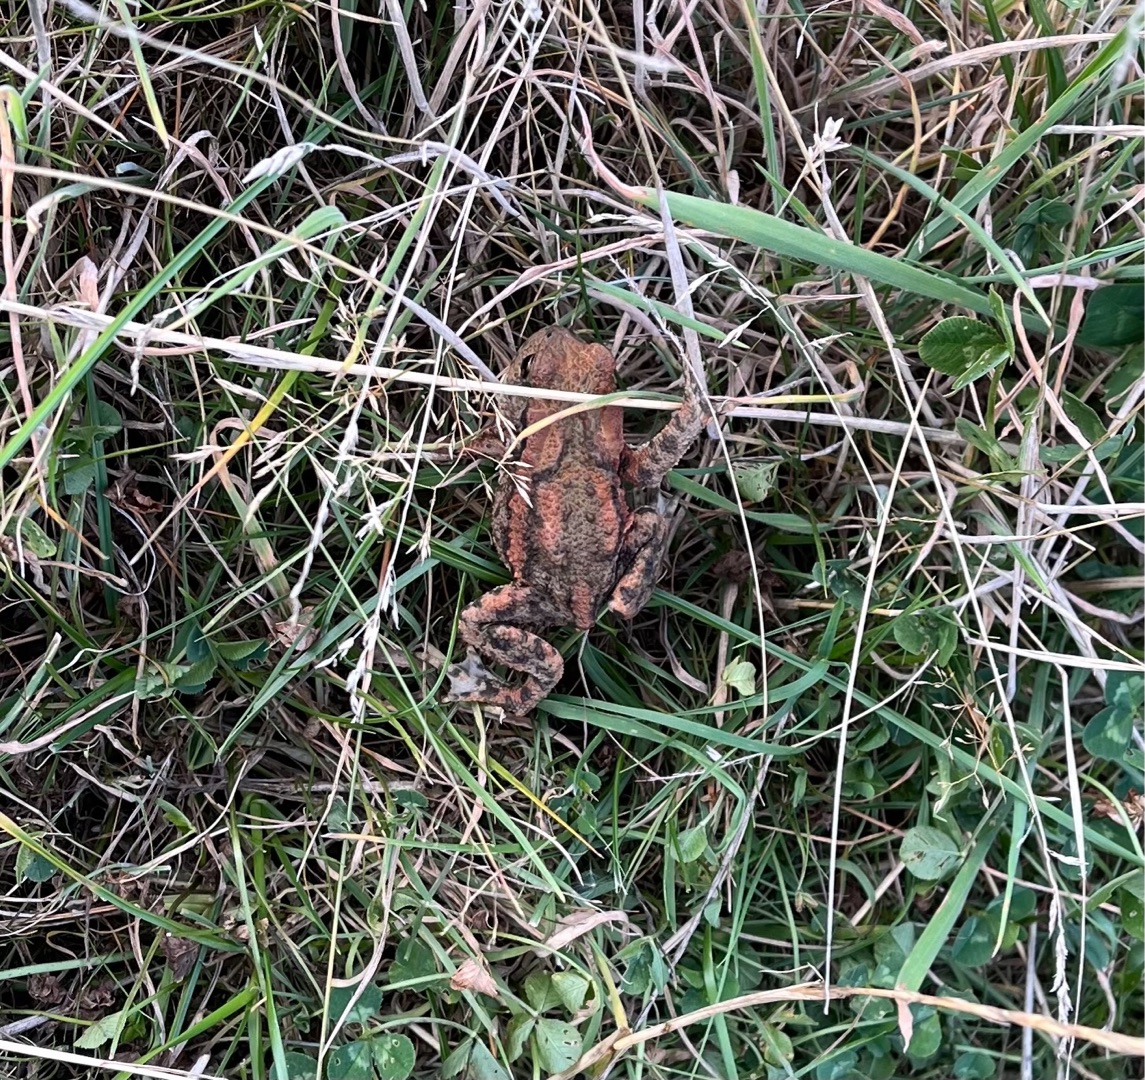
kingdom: Animalia
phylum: Chordata
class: Amphibia
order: Anura
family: Bufonidae
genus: Bufo
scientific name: Bufo bufo
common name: Skrubtudse
